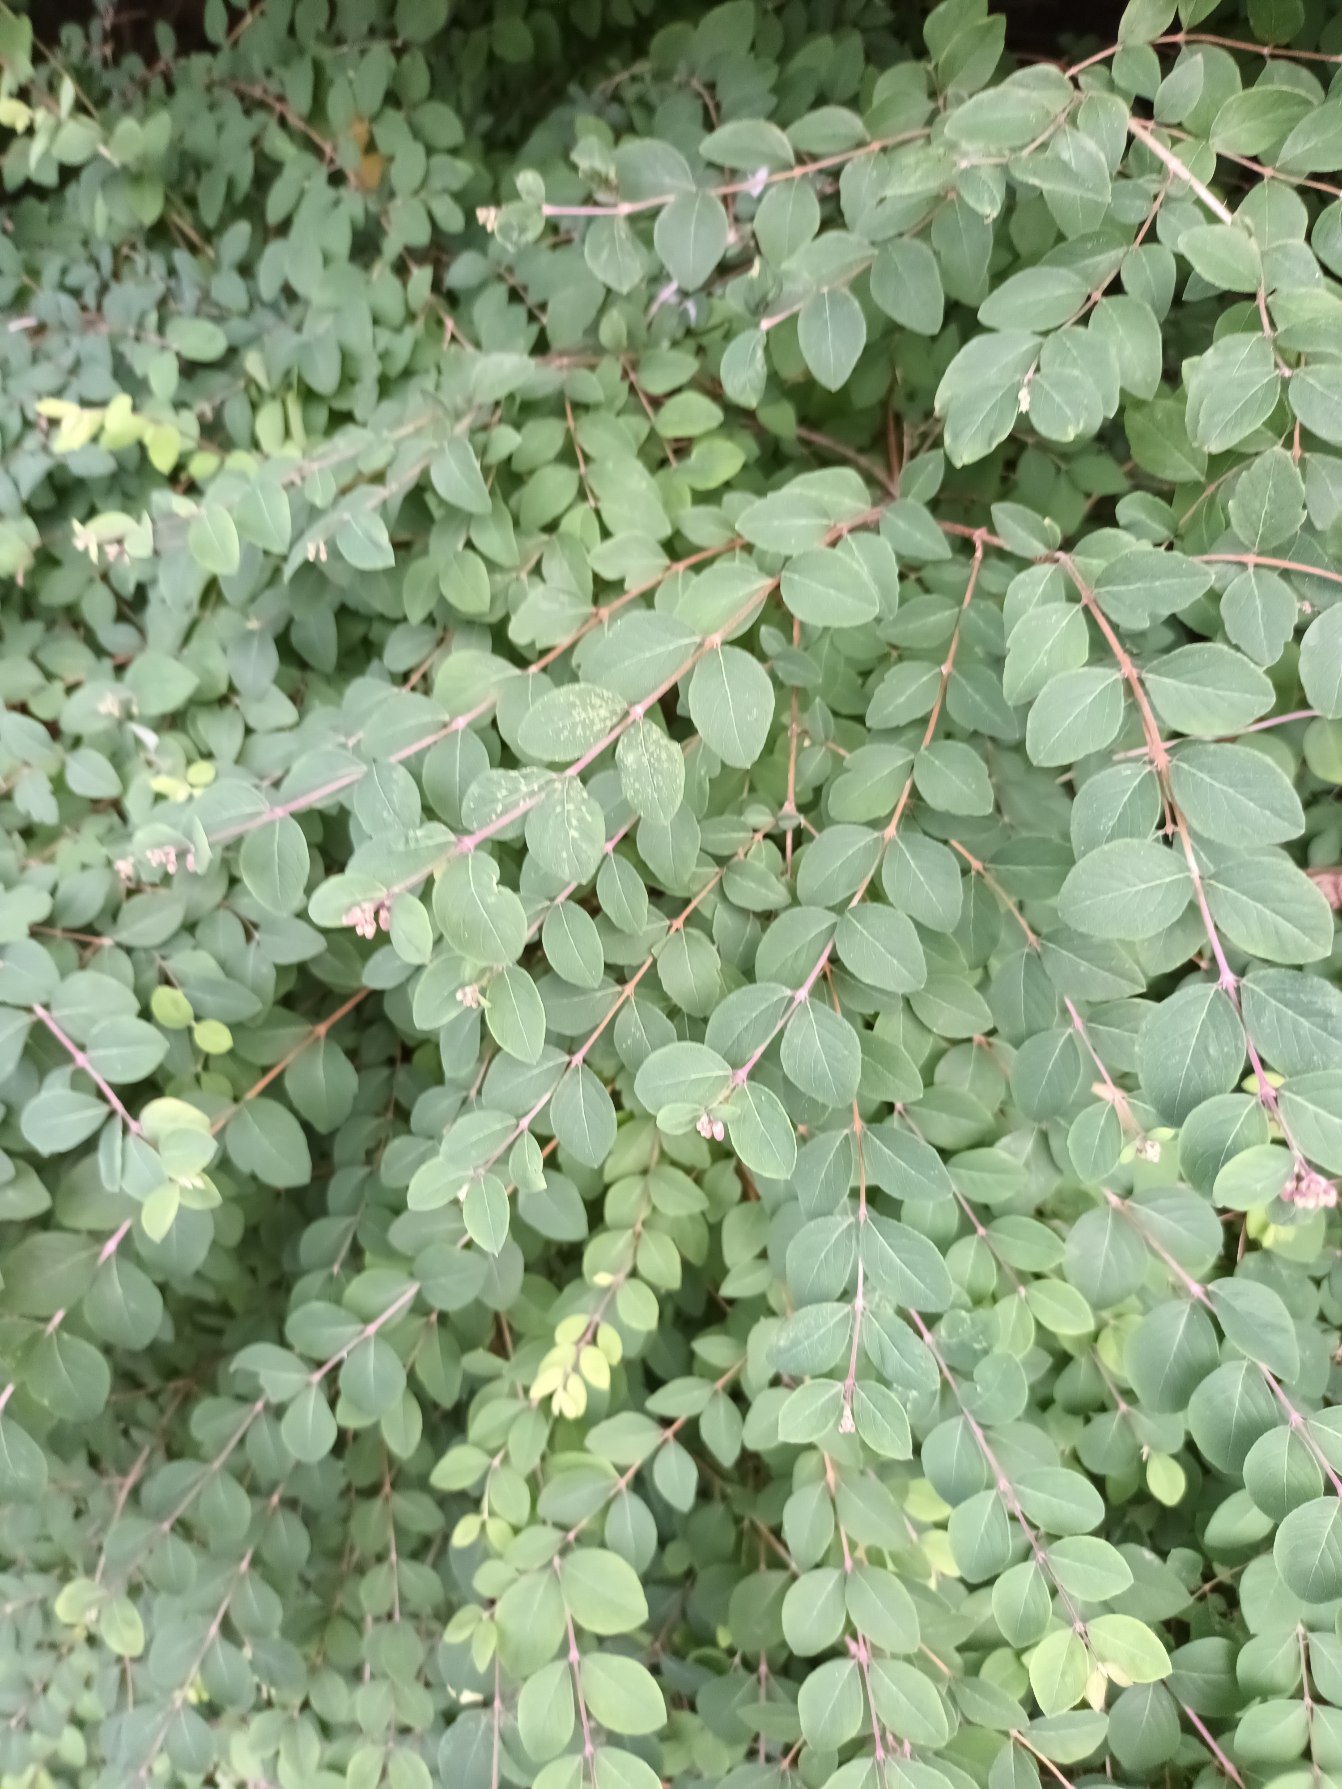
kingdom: Plantae
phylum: Tracheophyta
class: Magnoliopsida
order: Dipsacales
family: Caprifoliaceae
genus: Symphoricarpos
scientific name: Symphoricarpos chenaultii
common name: Rød snebær
